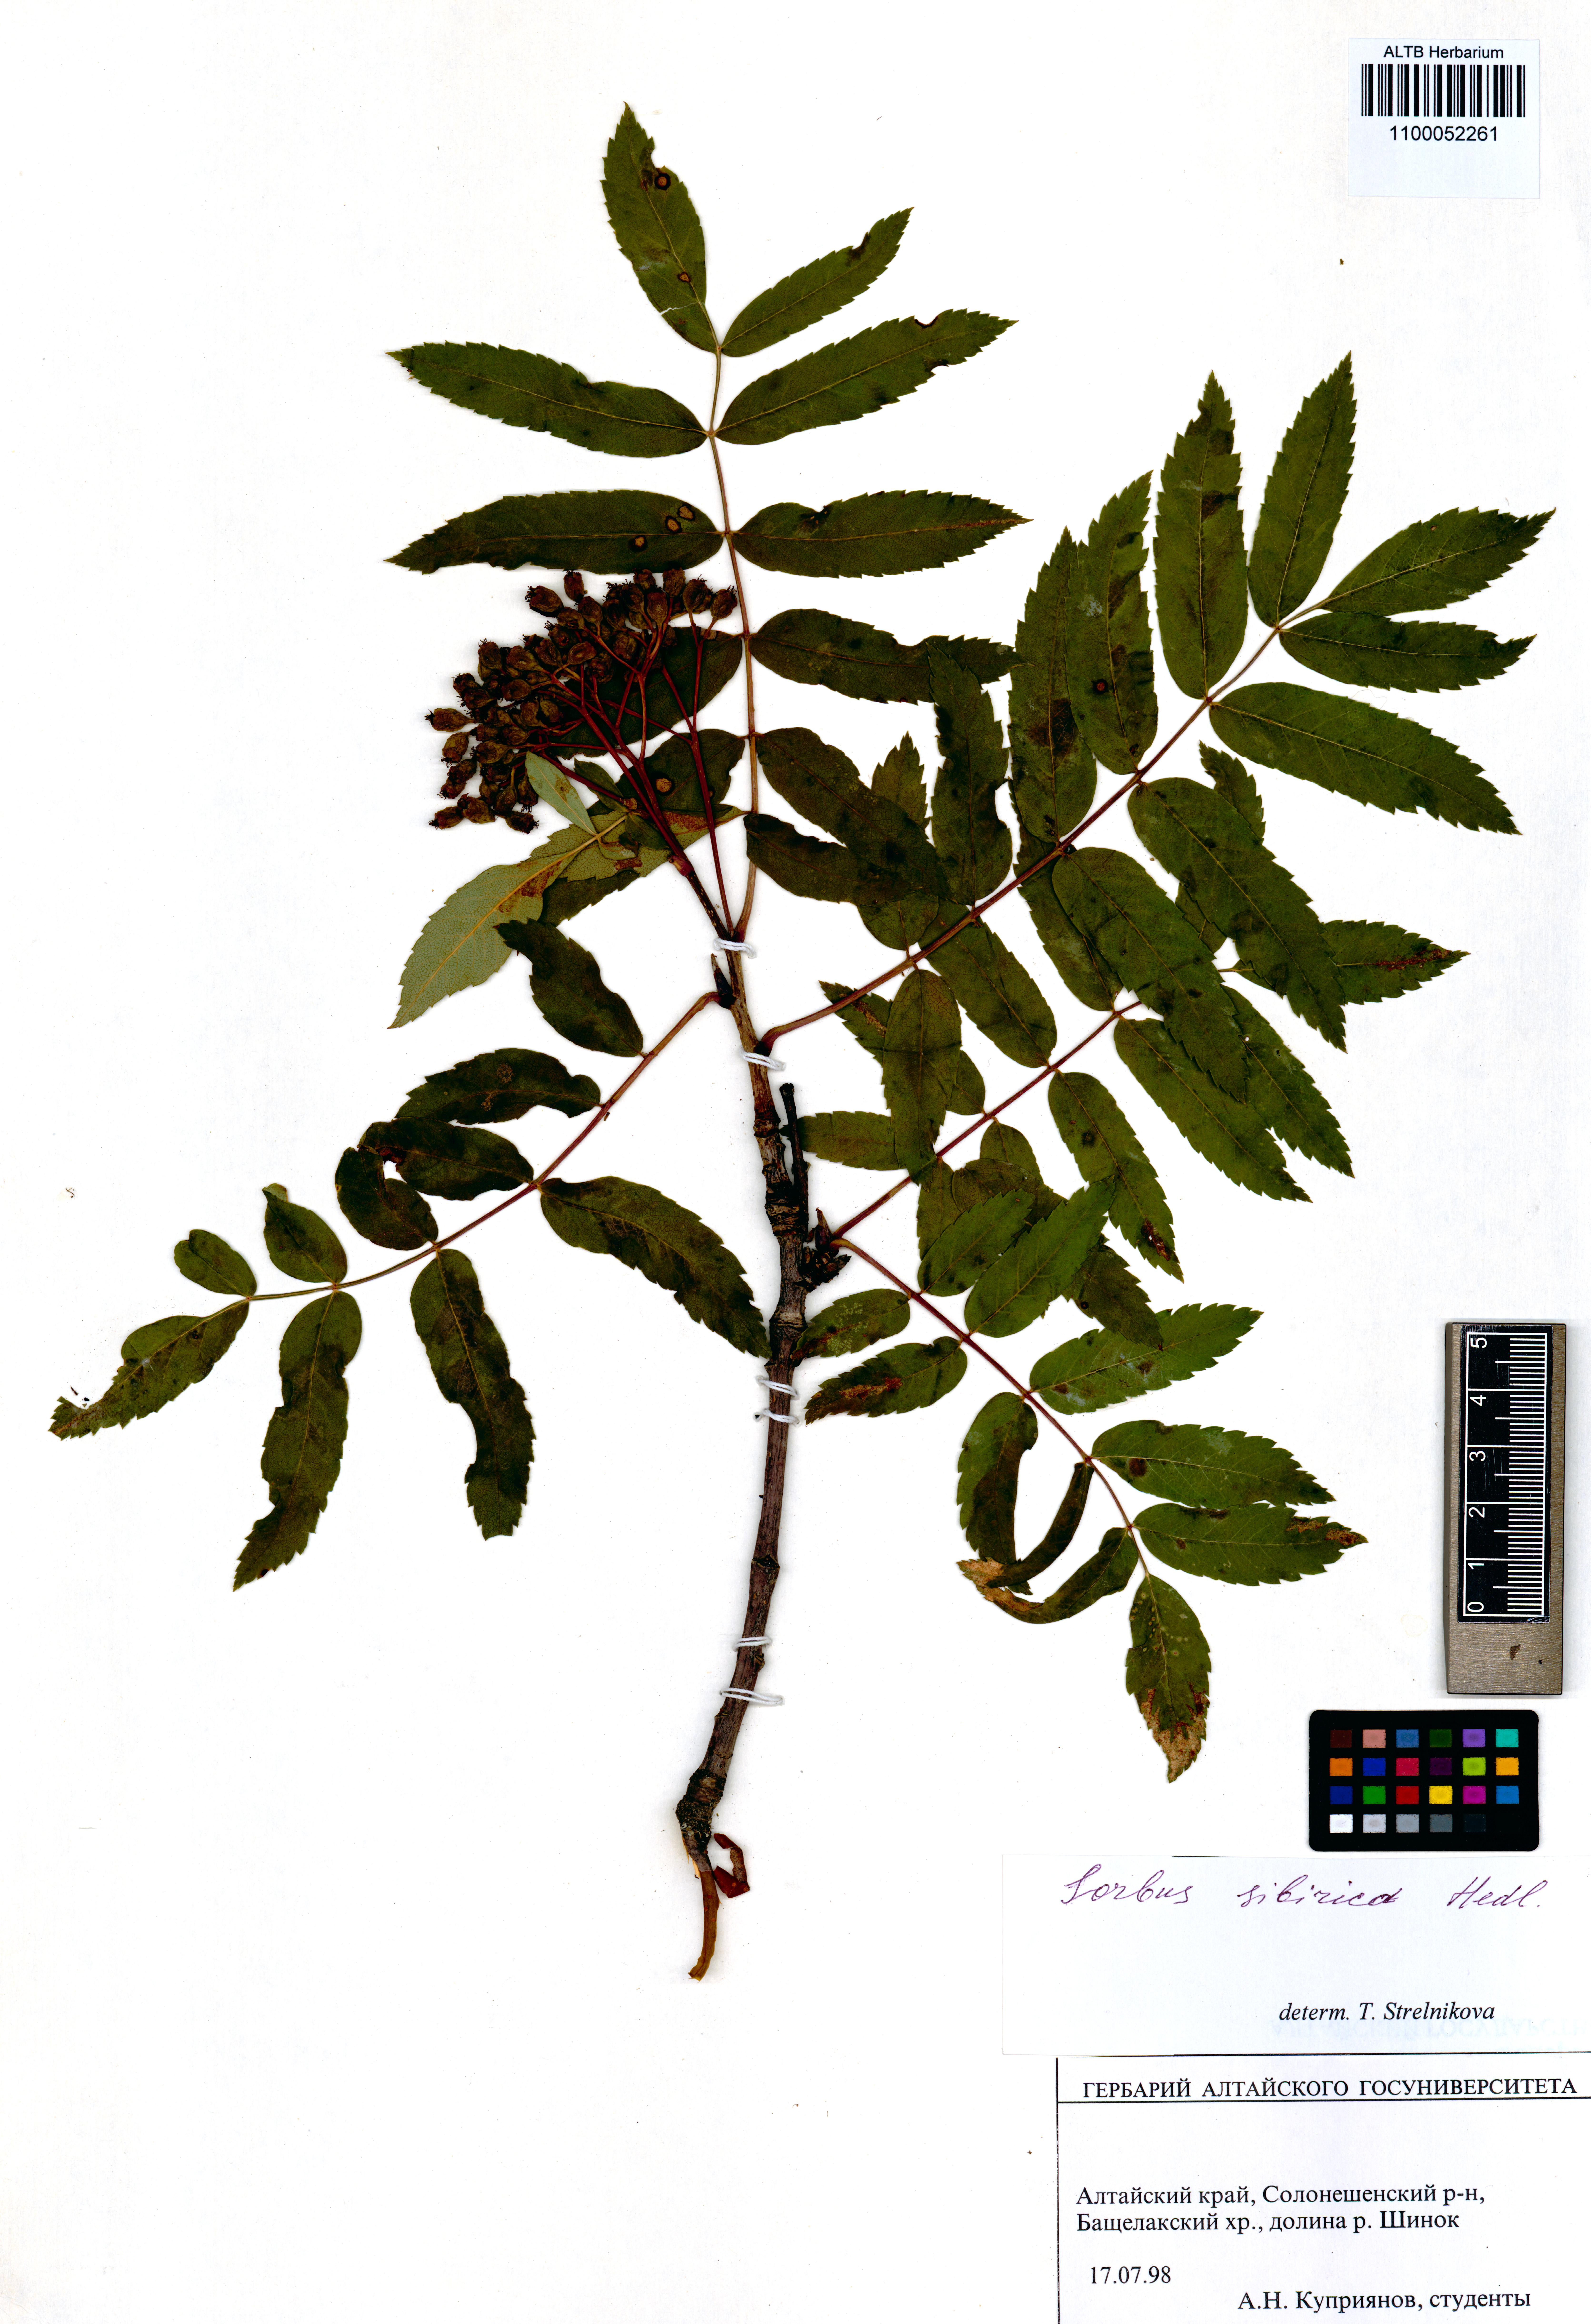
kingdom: Plantae
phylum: Tracheophyta
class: Magnoliopsida
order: Rosales
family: Rosaceae
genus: Sorbus
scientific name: Sorbus aucuparia
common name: Rowan
